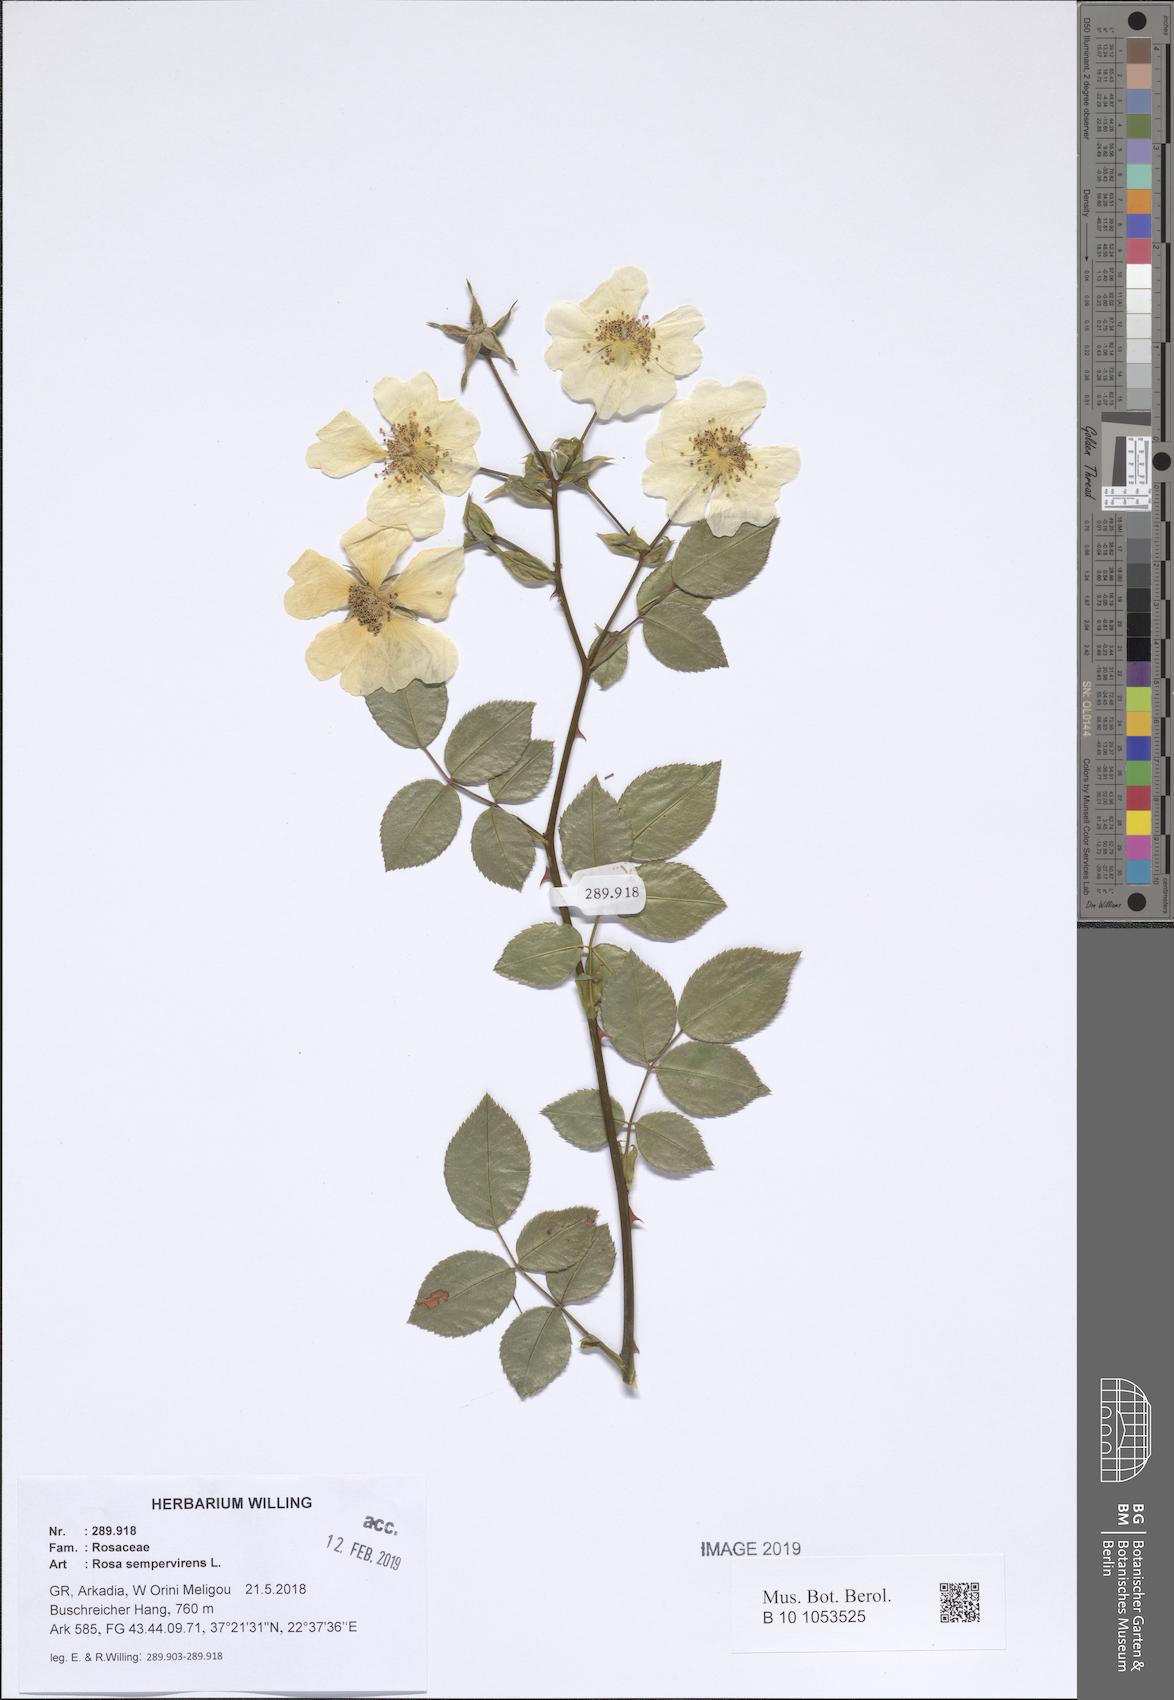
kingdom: Plantae
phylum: Tracheophyta
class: Magnoliopsida
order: Rosales
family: Rosaceae
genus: Rosa
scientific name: Rosa sempervirens
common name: Evergreen rose
